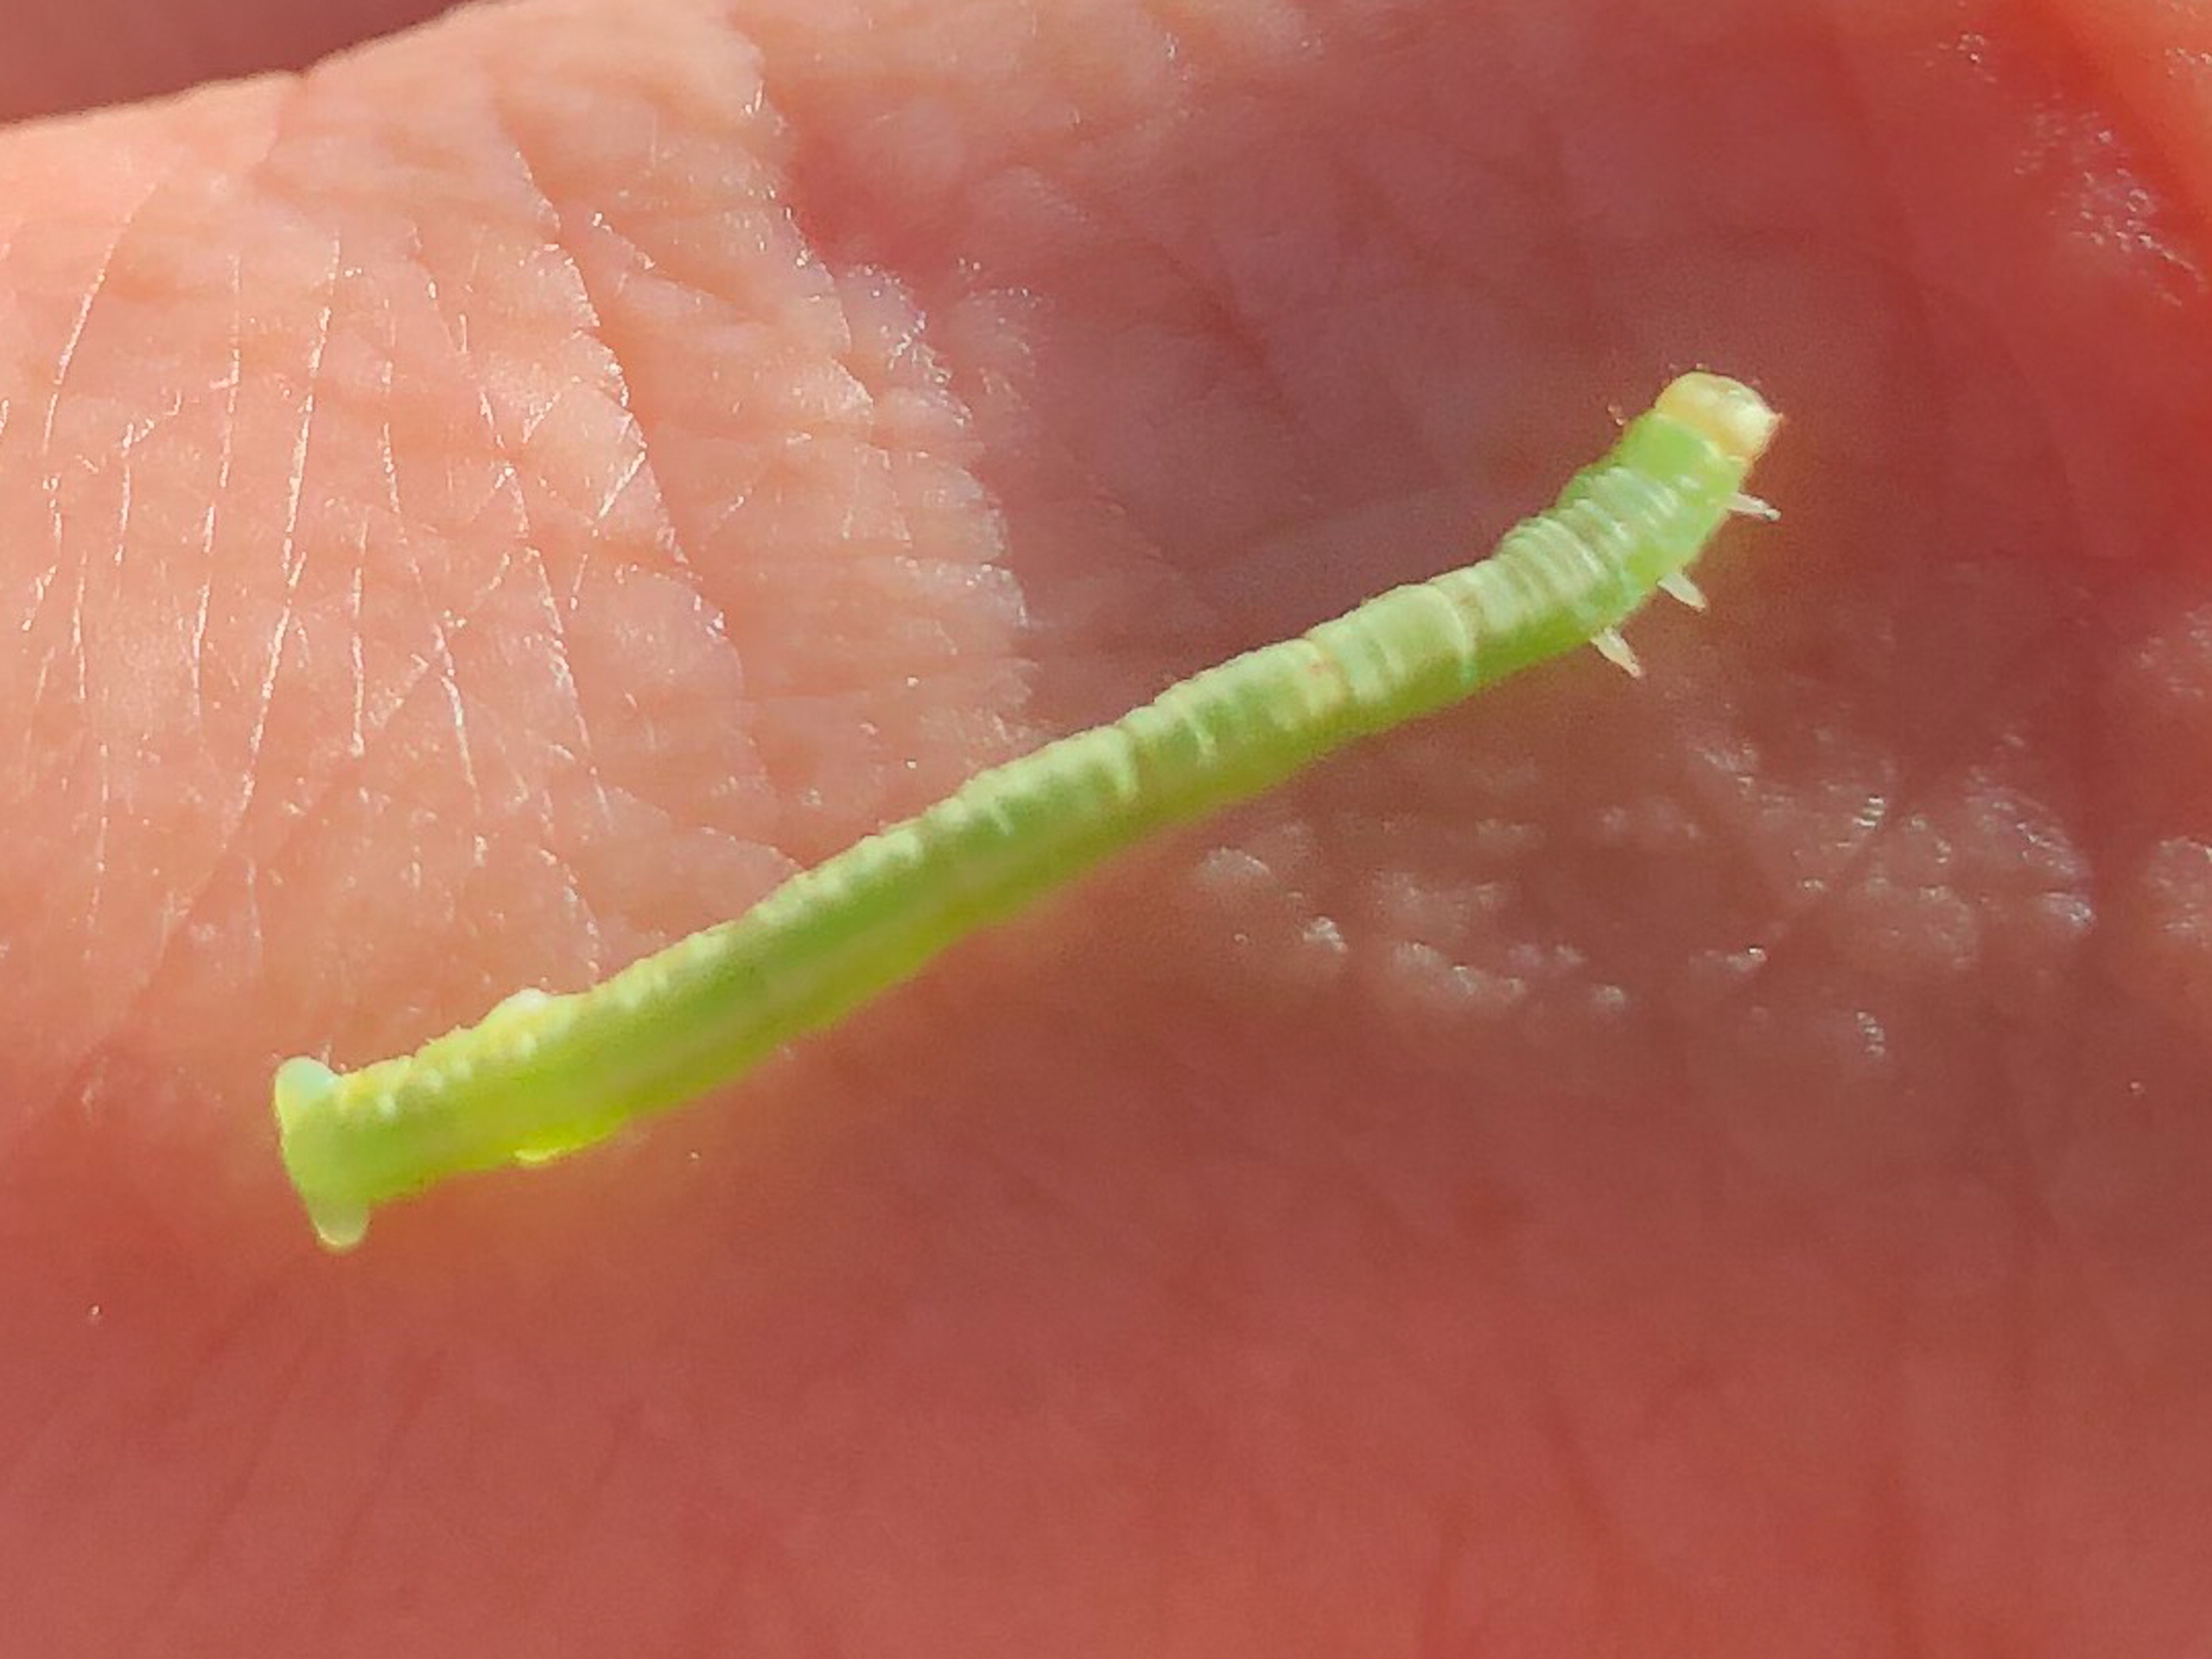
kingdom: Animalia
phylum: Arthropoda
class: Insecta
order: Lepidoptera
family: Geometridae
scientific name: Geometridae
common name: Målere
